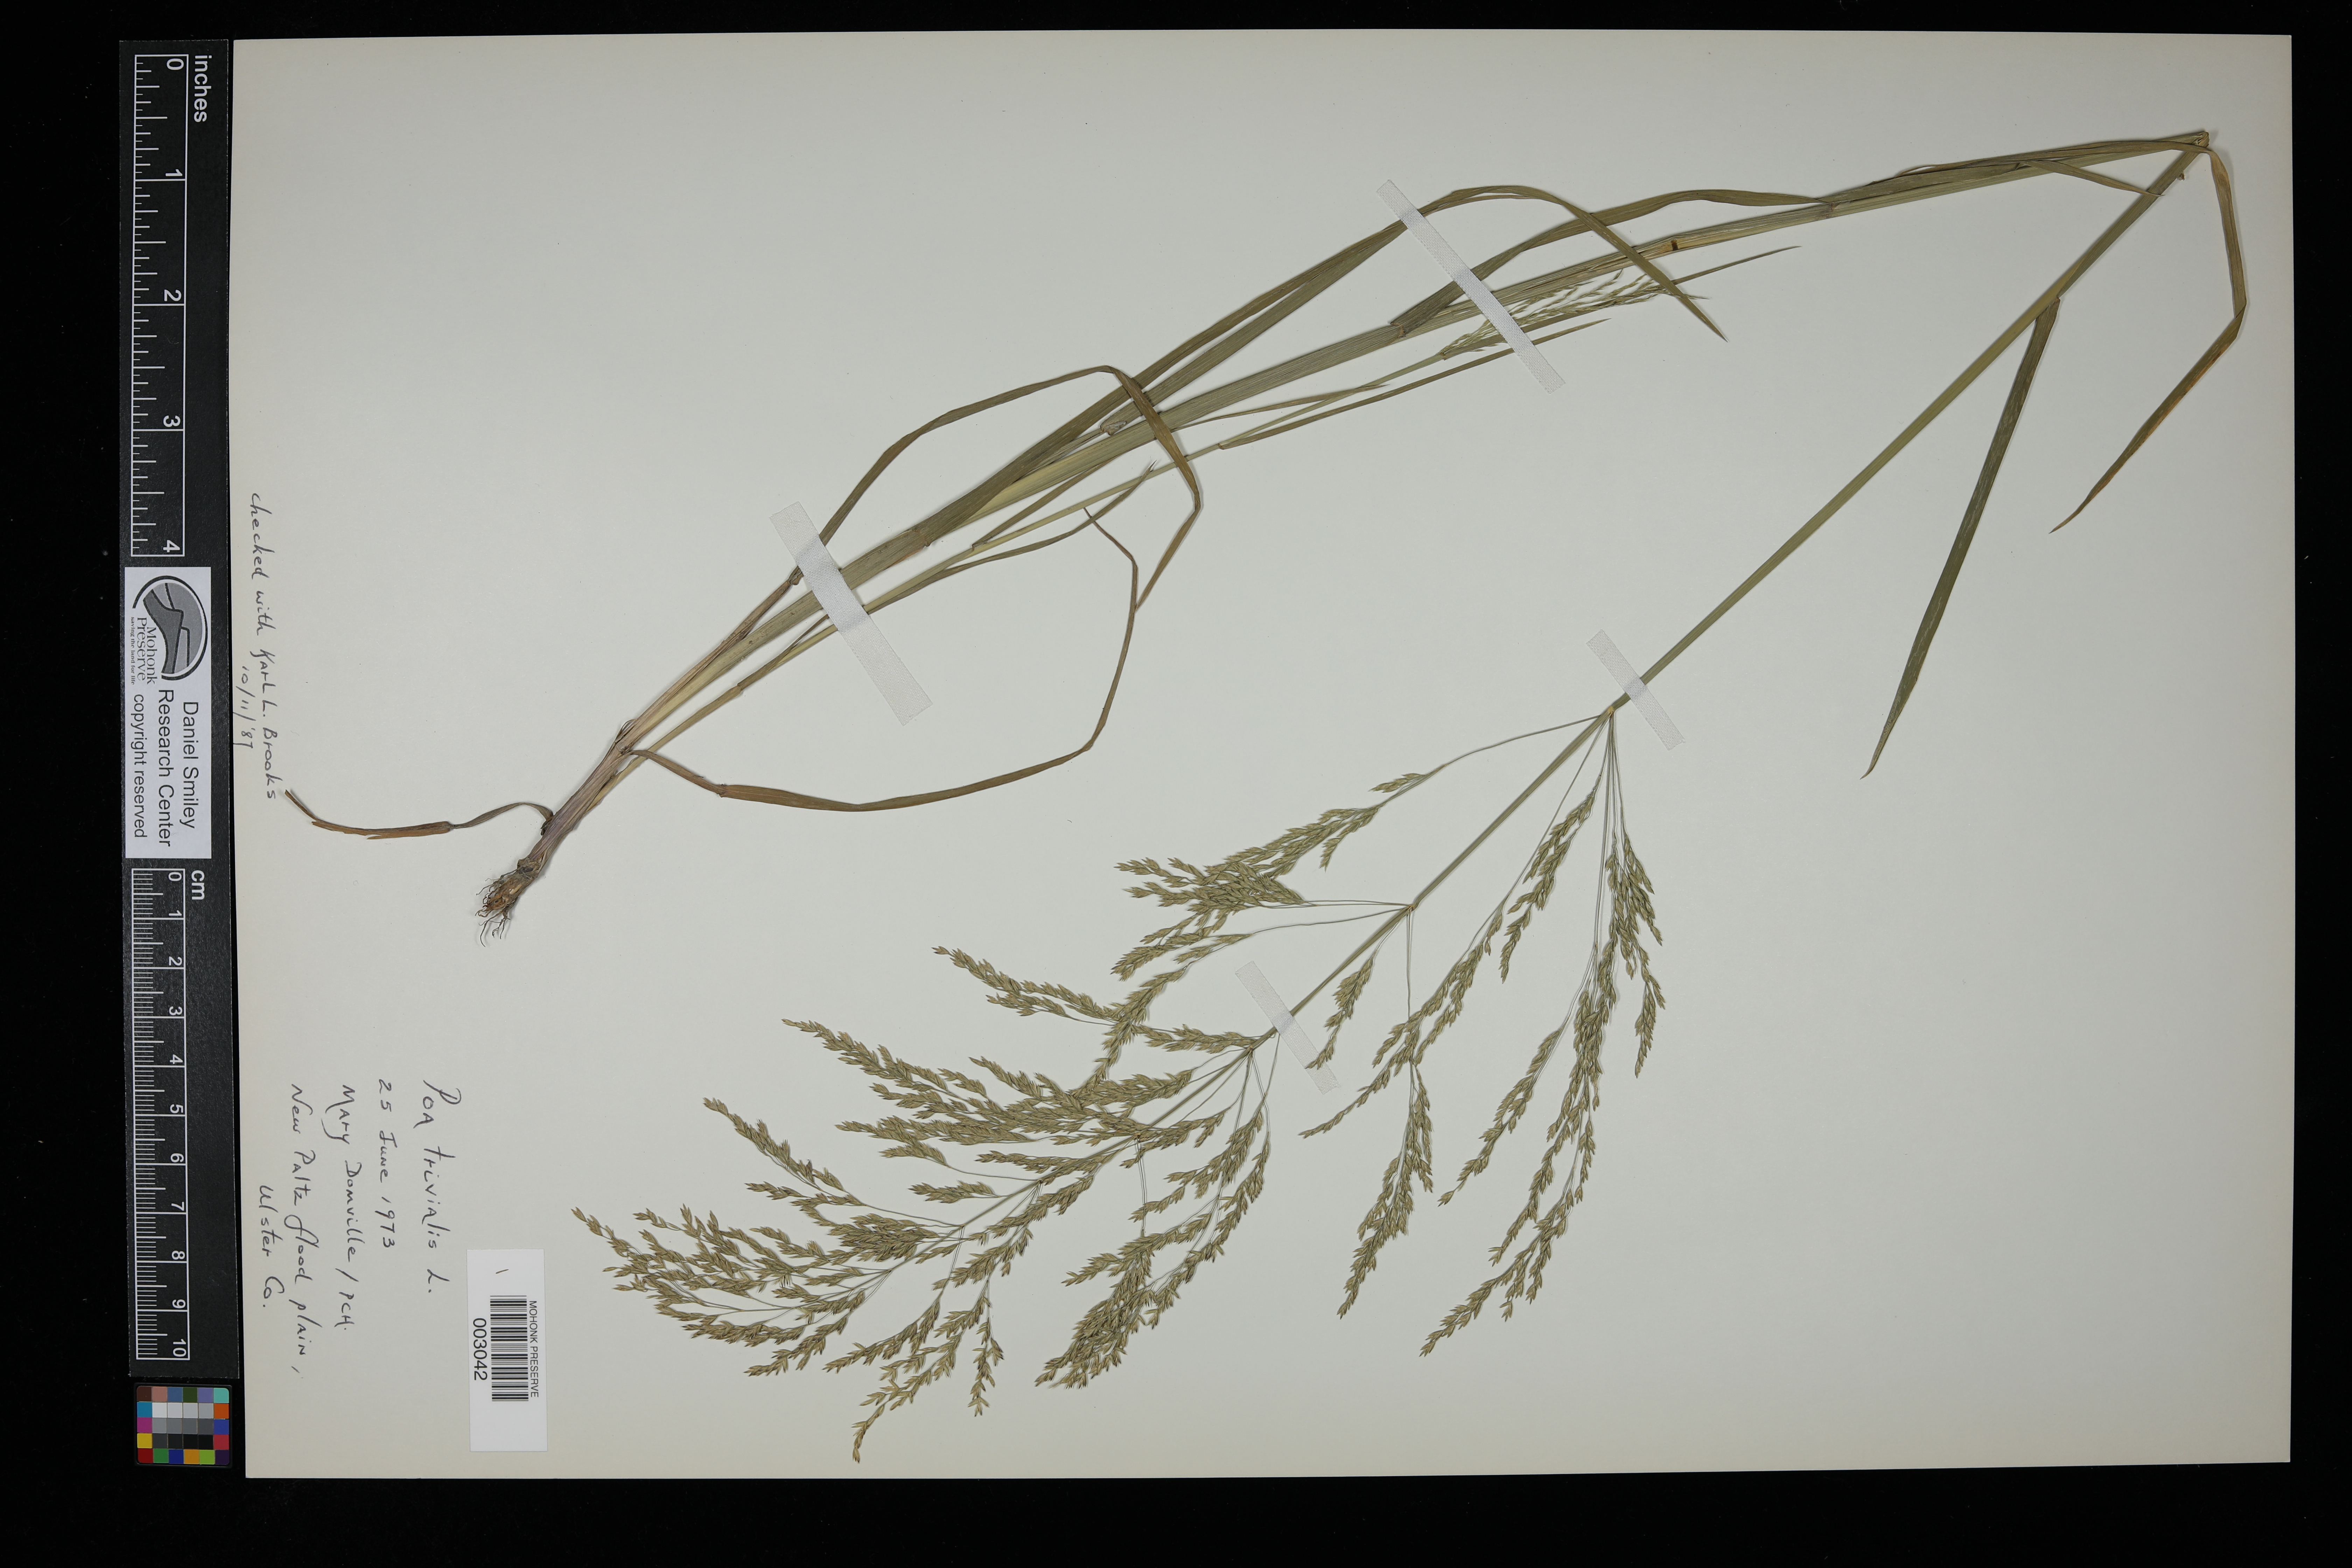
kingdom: Plantae
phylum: Tracheophyta
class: Liliopsida
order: Poales
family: Poaceae
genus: Poa
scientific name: Poa trivialis
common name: Rough bluegrass
